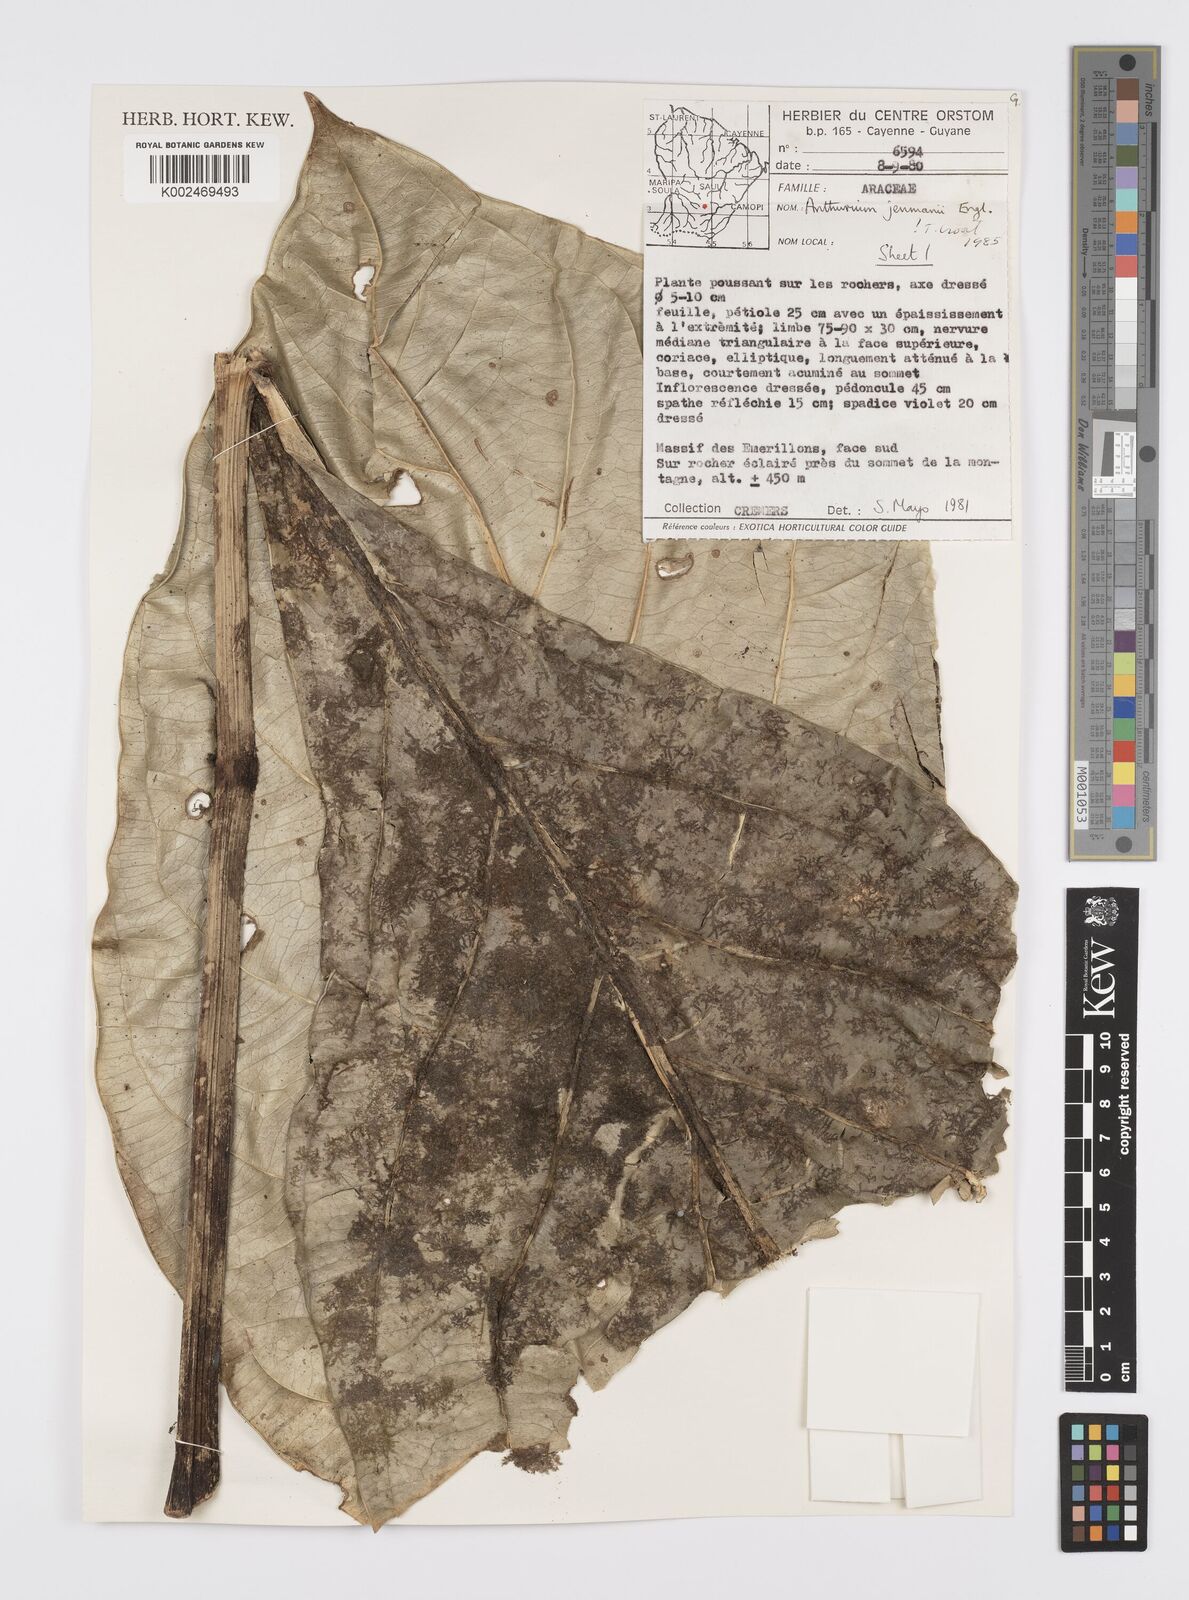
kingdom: Plantae
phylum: Tracheophyta
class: Liliopsida
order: Alismatales
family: Araceae
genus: Anthurium
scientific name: Anthurium jenmanii
